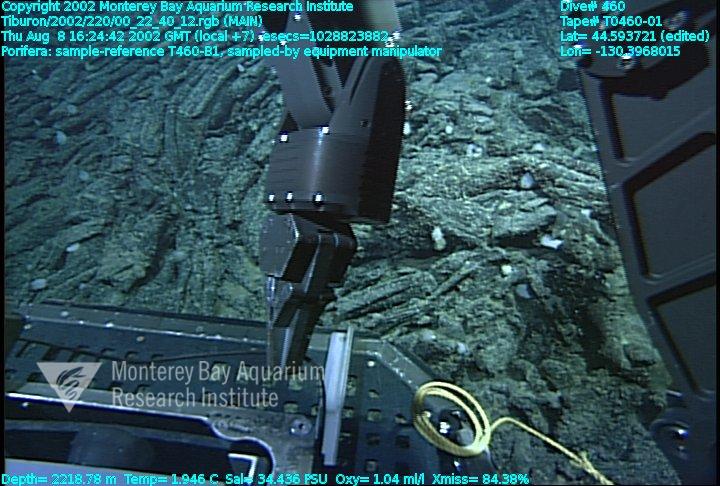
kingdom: Animalia
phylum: Porifera
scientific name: Porifera
